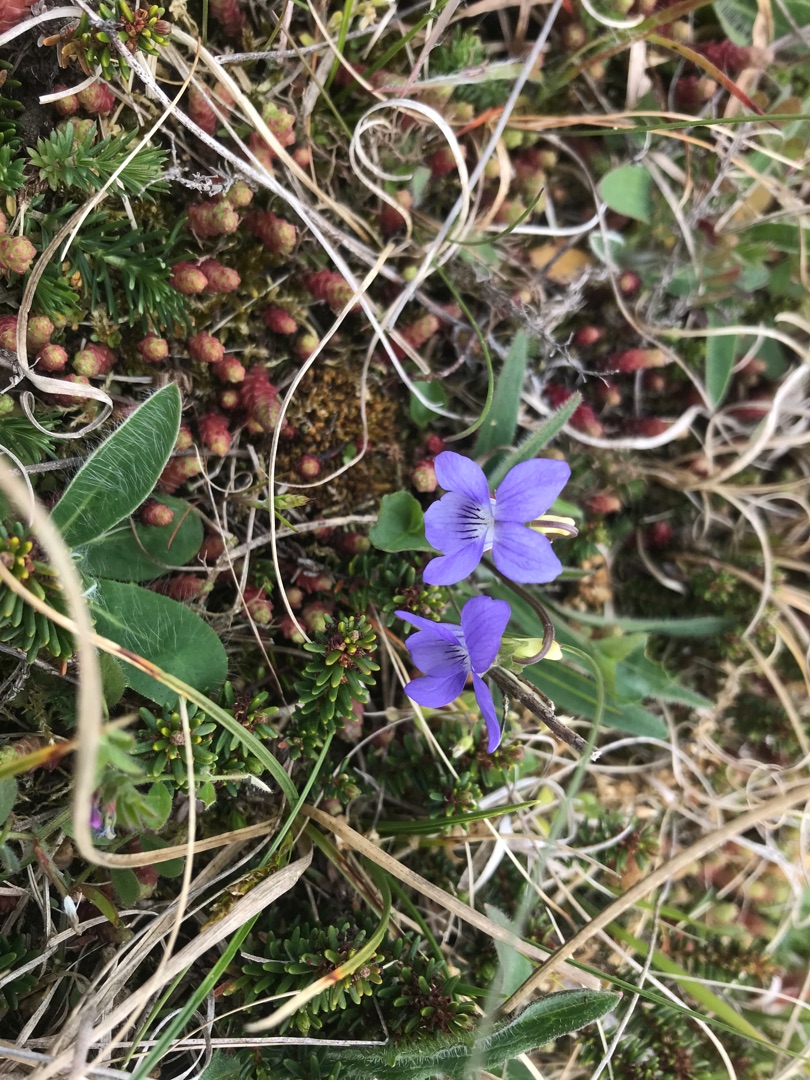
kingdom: Plantae
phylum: Tracheophyta
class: Magnoliopsida
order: Malpighiales
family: Violaceae
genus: Viola
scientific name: Viola canina
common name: Hunde-viol
